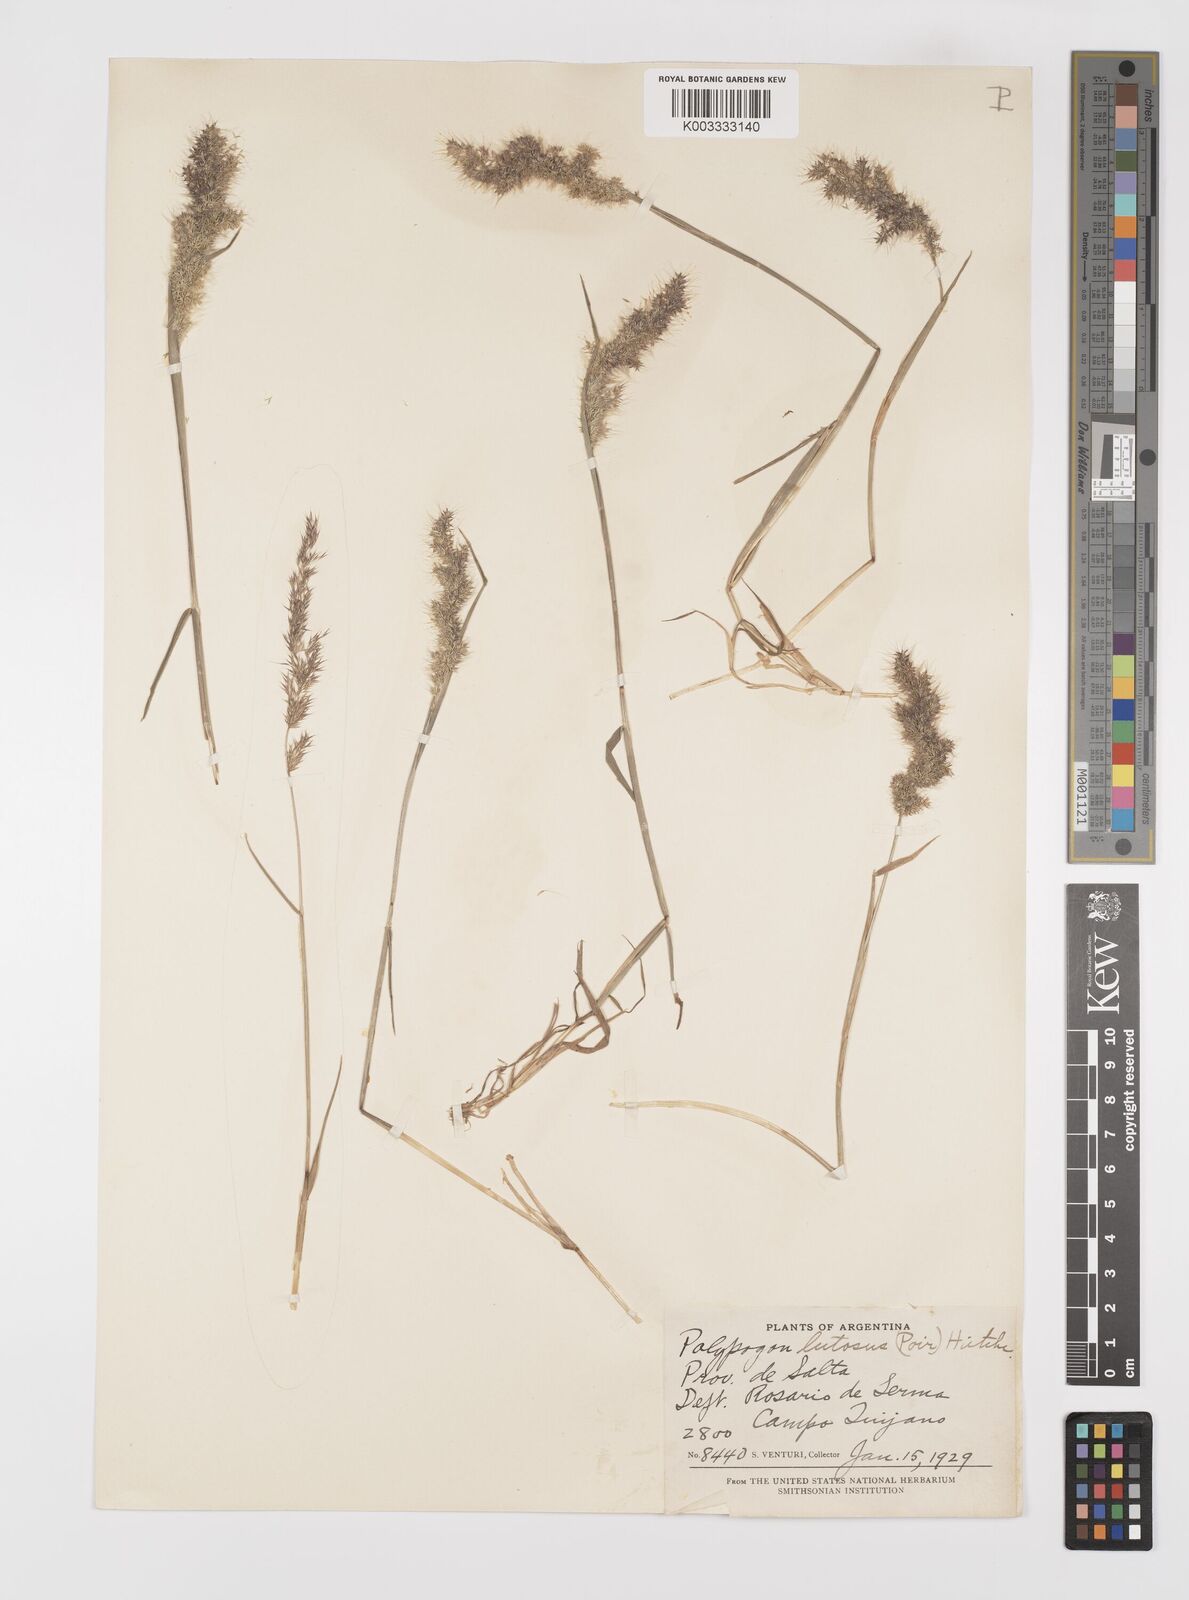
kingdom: Plantae
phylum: Tracheophyta
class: Liliopsida
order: Poales
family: Poaceae
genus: Polypogon
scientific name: Polypogon australis
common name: Chilean rabbitsfoot grass
